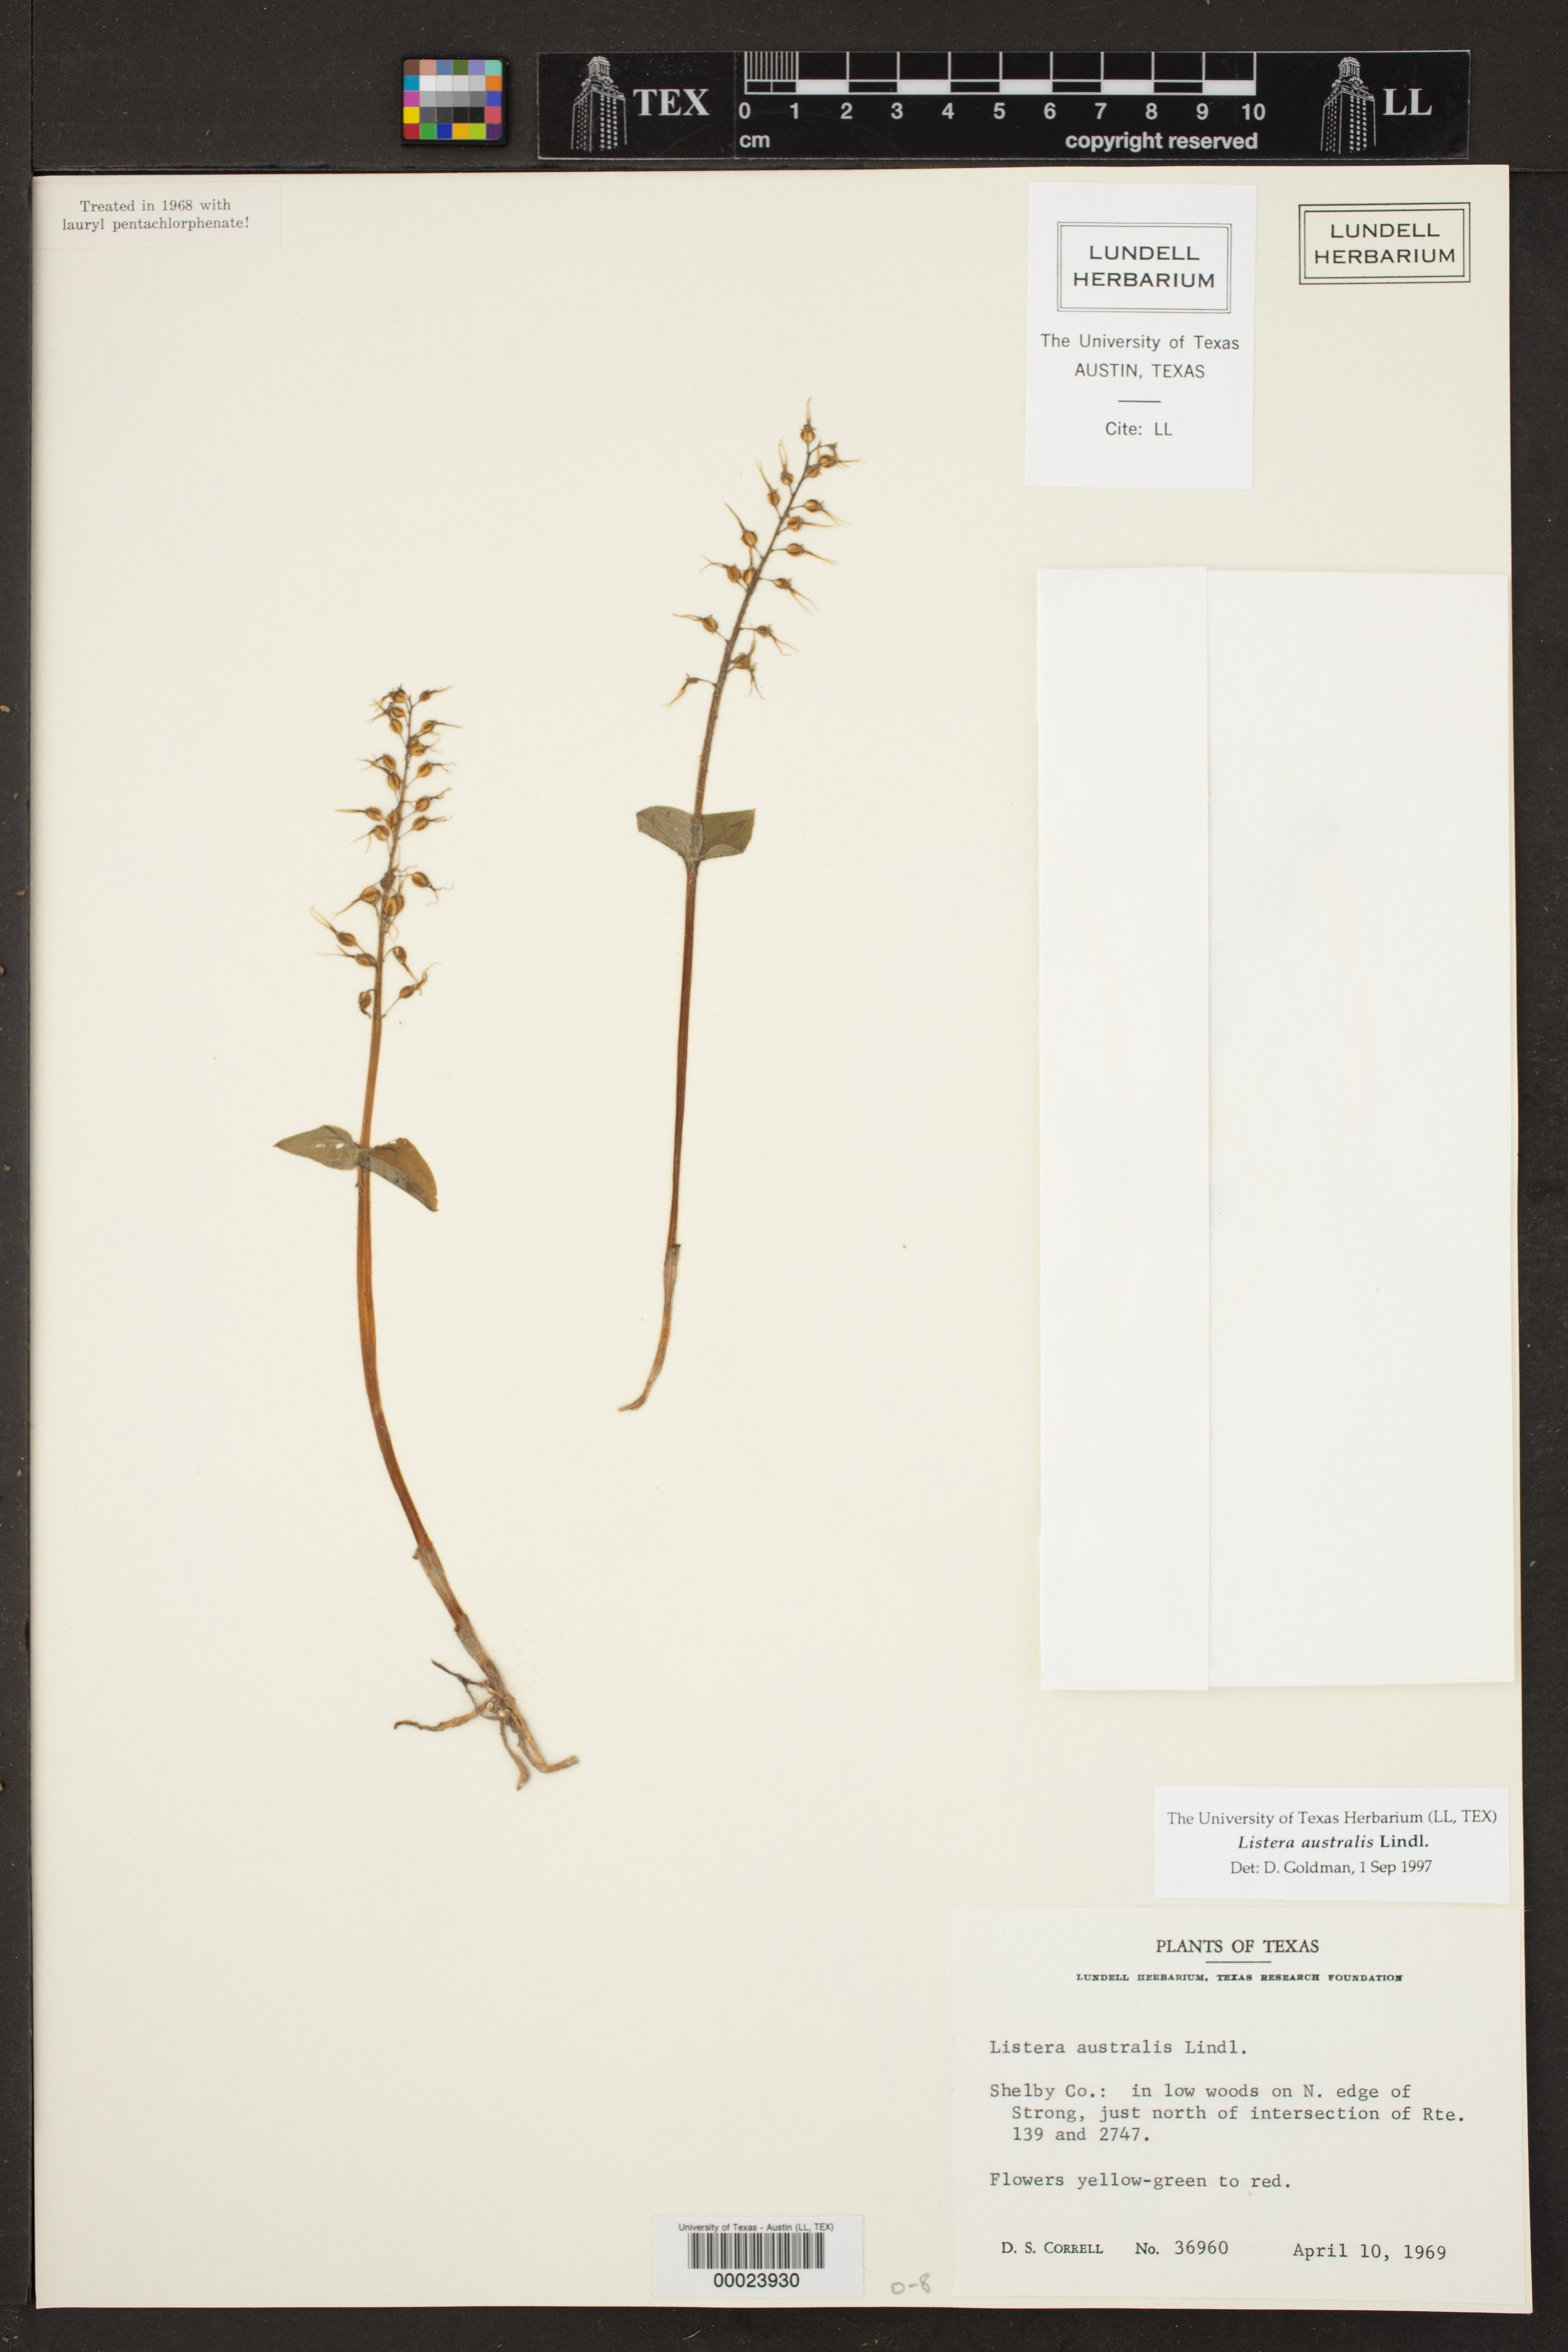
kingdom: Plantae
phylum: Tracheophyta
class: Liliopsida
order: Asparagales
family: Orchidaceae
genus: Neottia
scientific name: Neottia bifolia
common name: Southern twayblade
